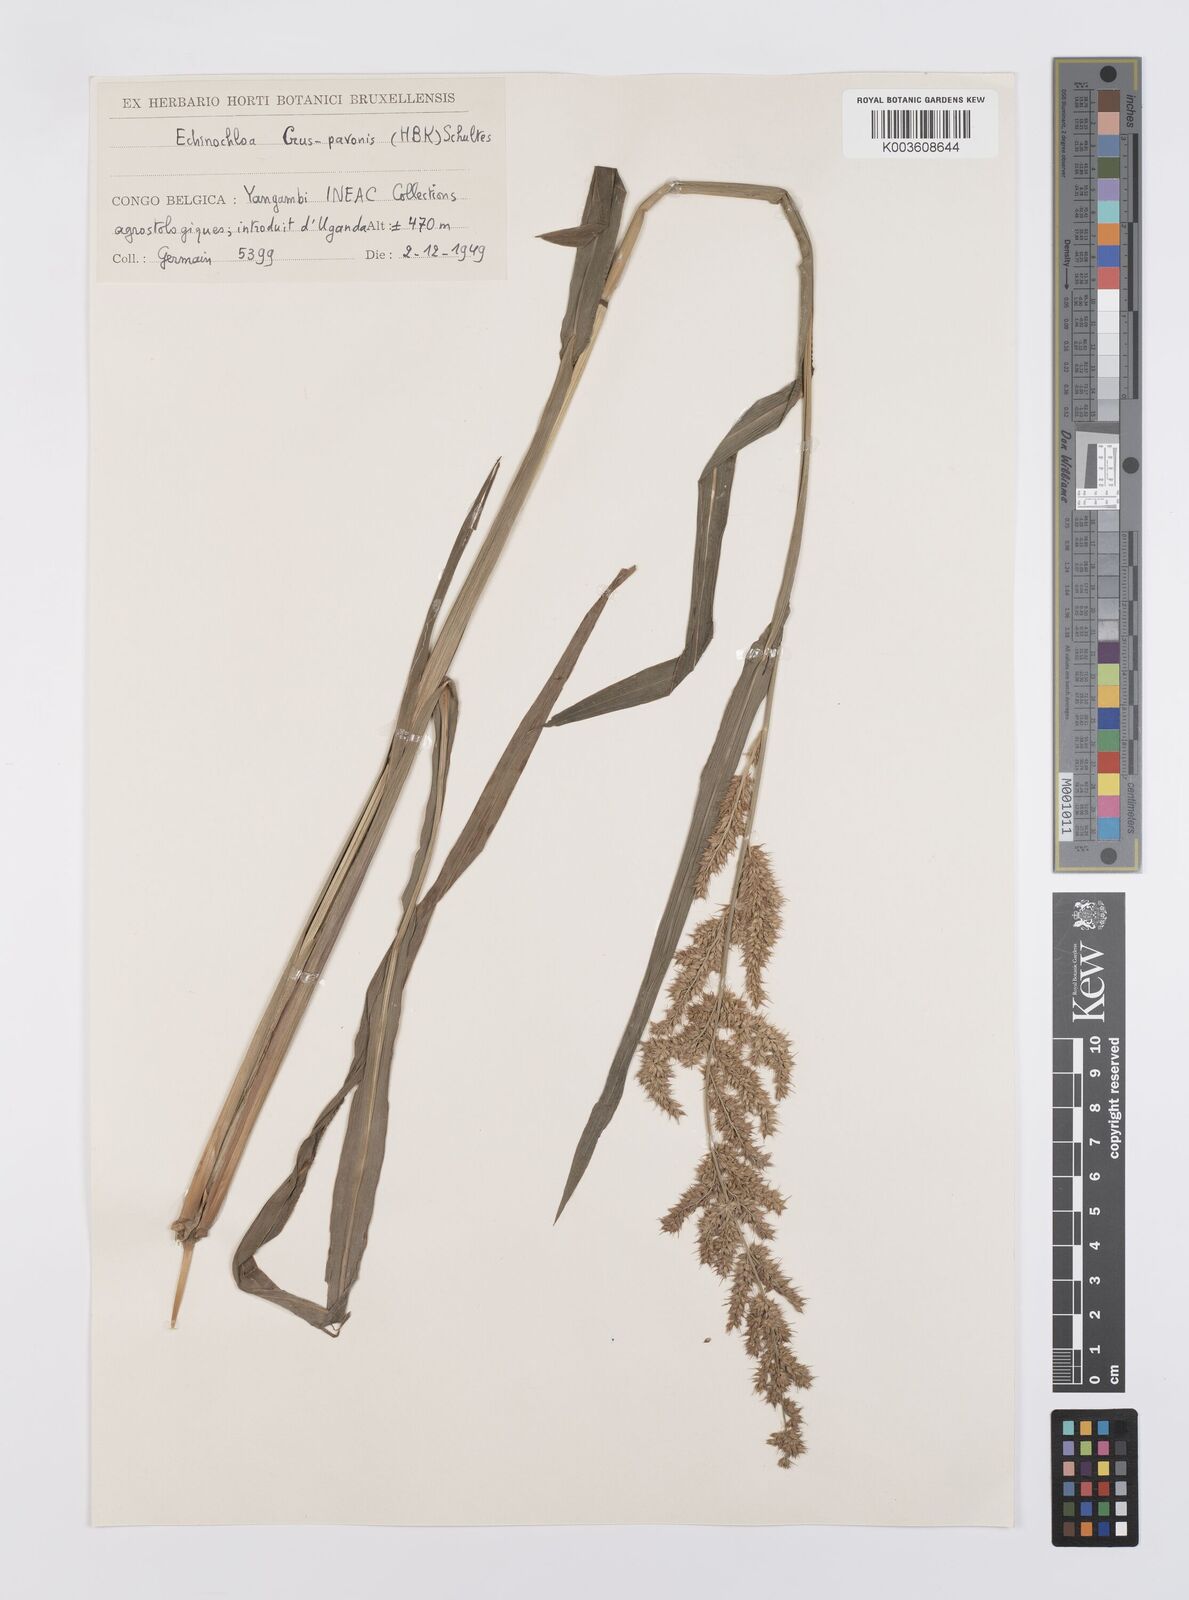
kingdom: Plantae
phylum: Tracheophyta
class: Liliopsida
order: Poales
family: Poaceae
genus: Echinochloa
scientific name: Echinochloa crus-pavonis
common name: Gulf cockspur grass
